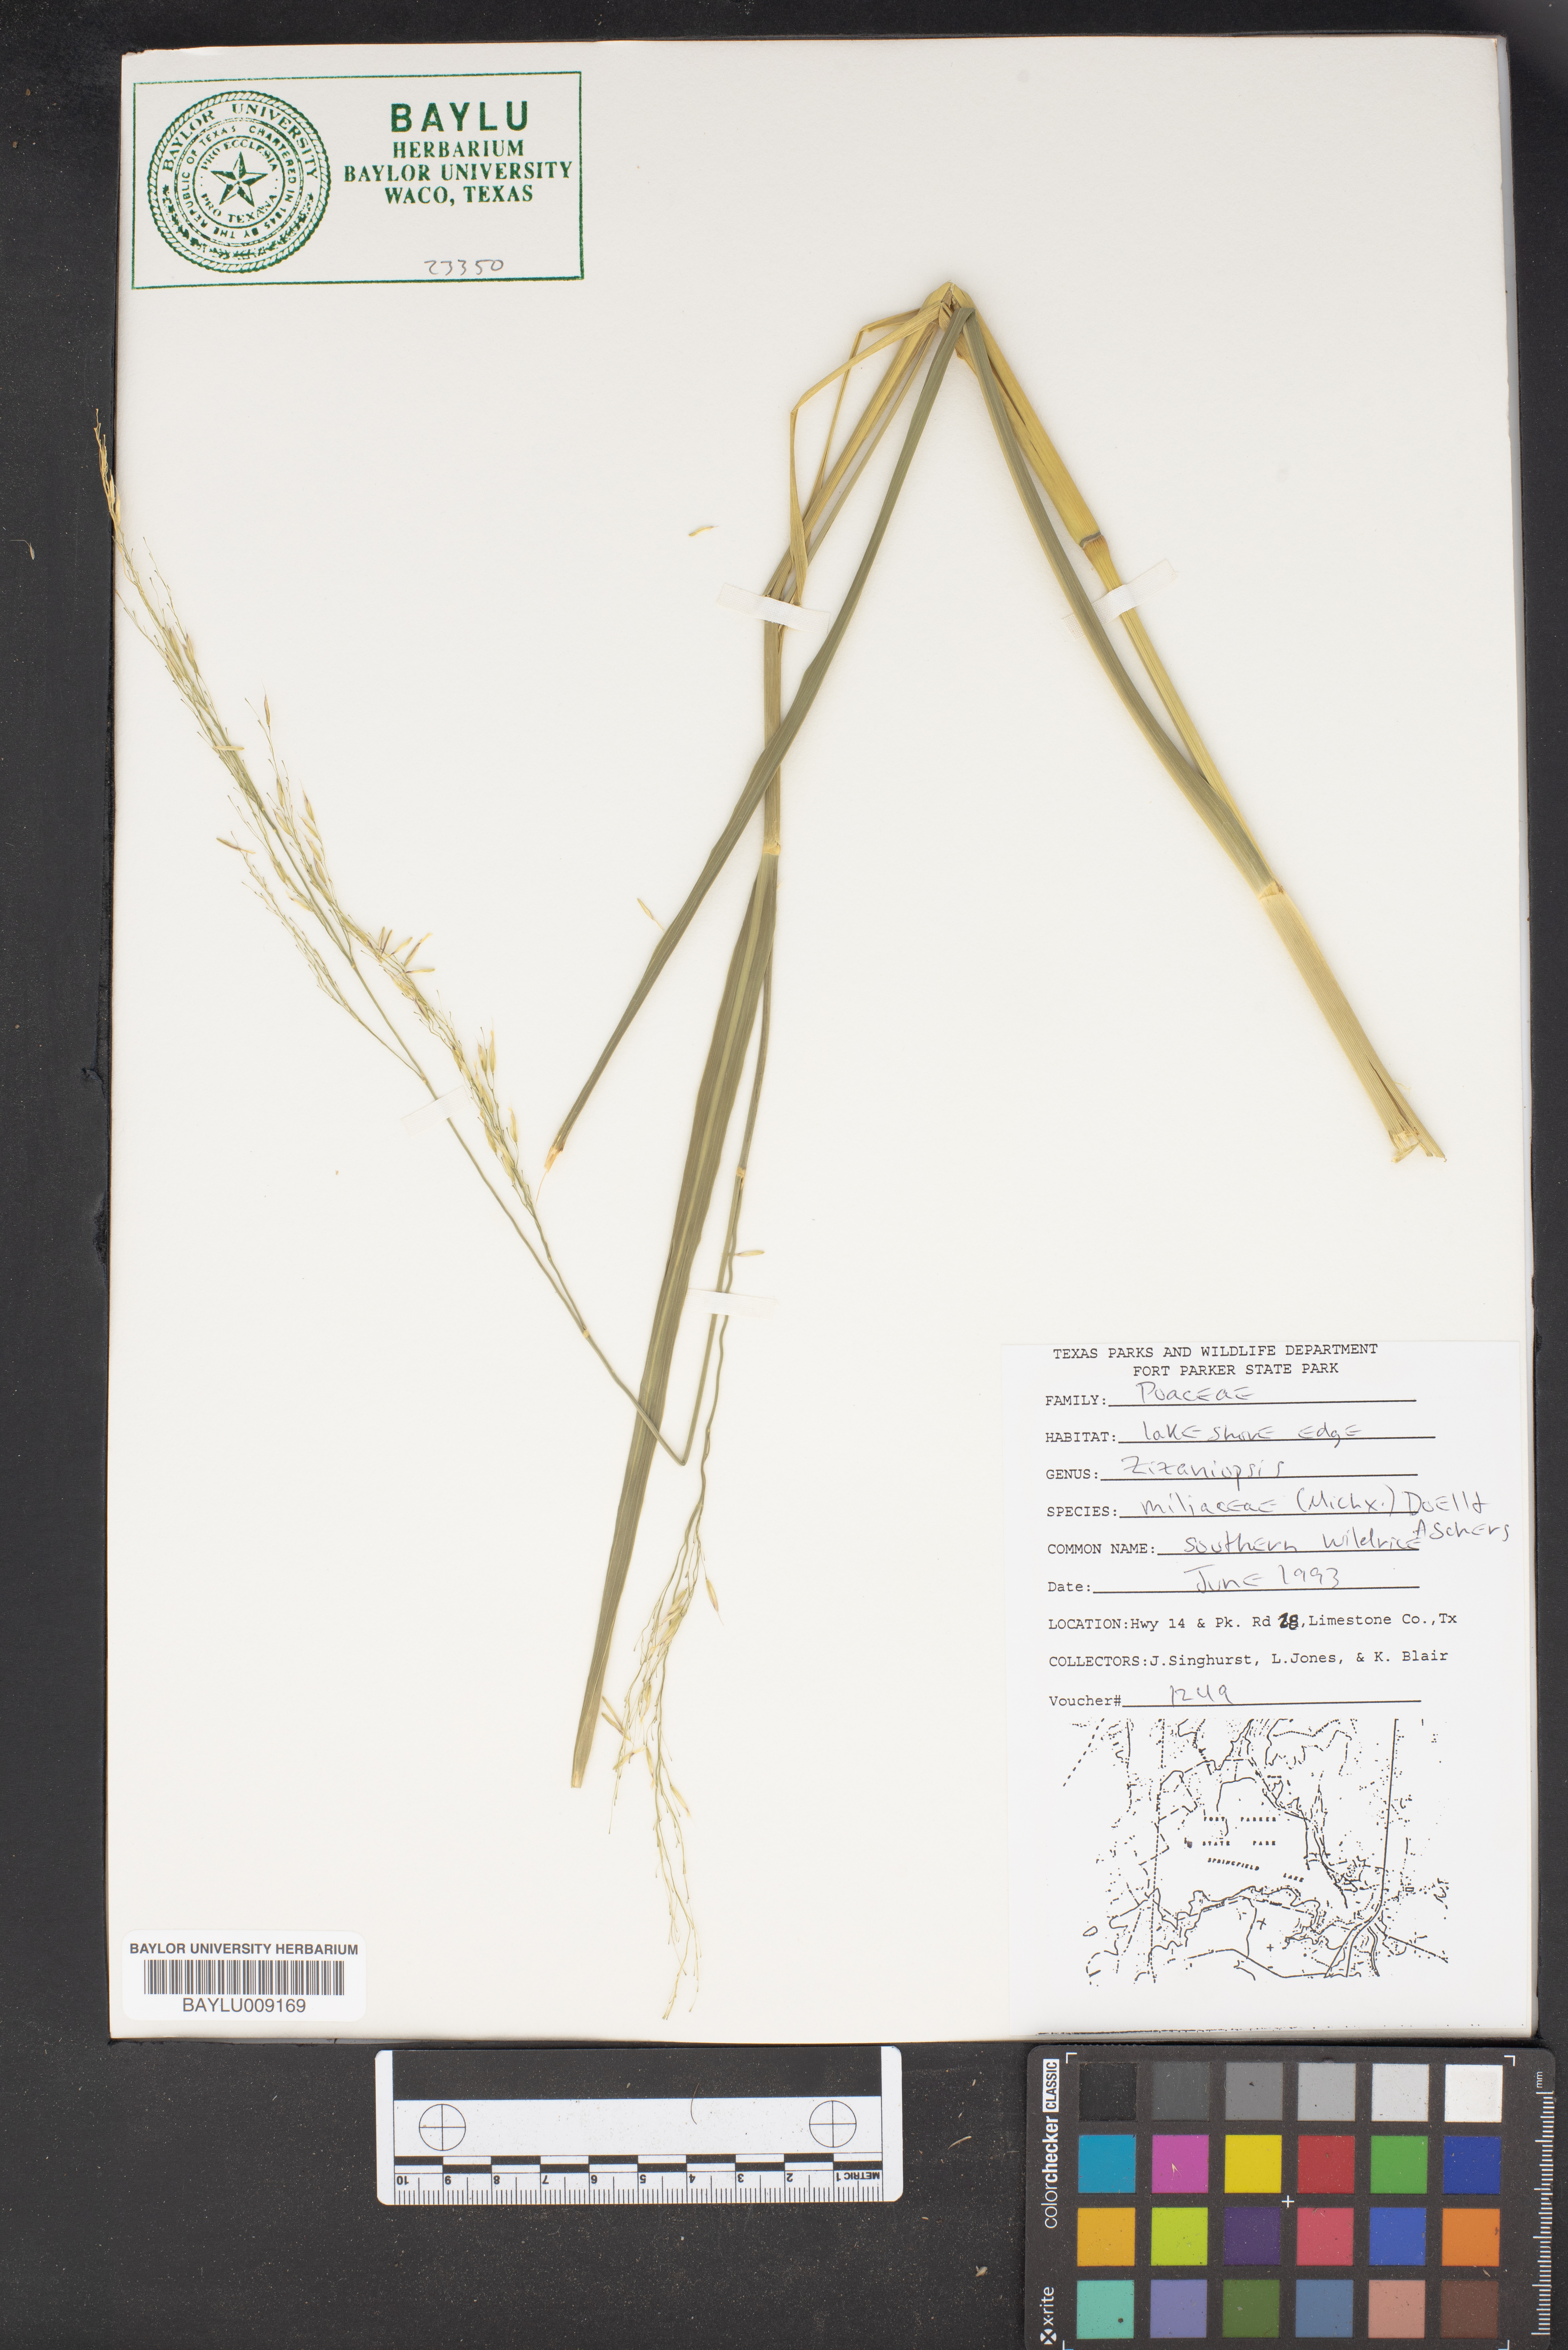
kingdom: Plantae
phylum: Tracheophyta
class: Liliopsida
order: Poales
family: Poaceae
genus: Zizaniopsis
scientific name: Zizaniopsis miliacea
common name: Giant-cutgrass
